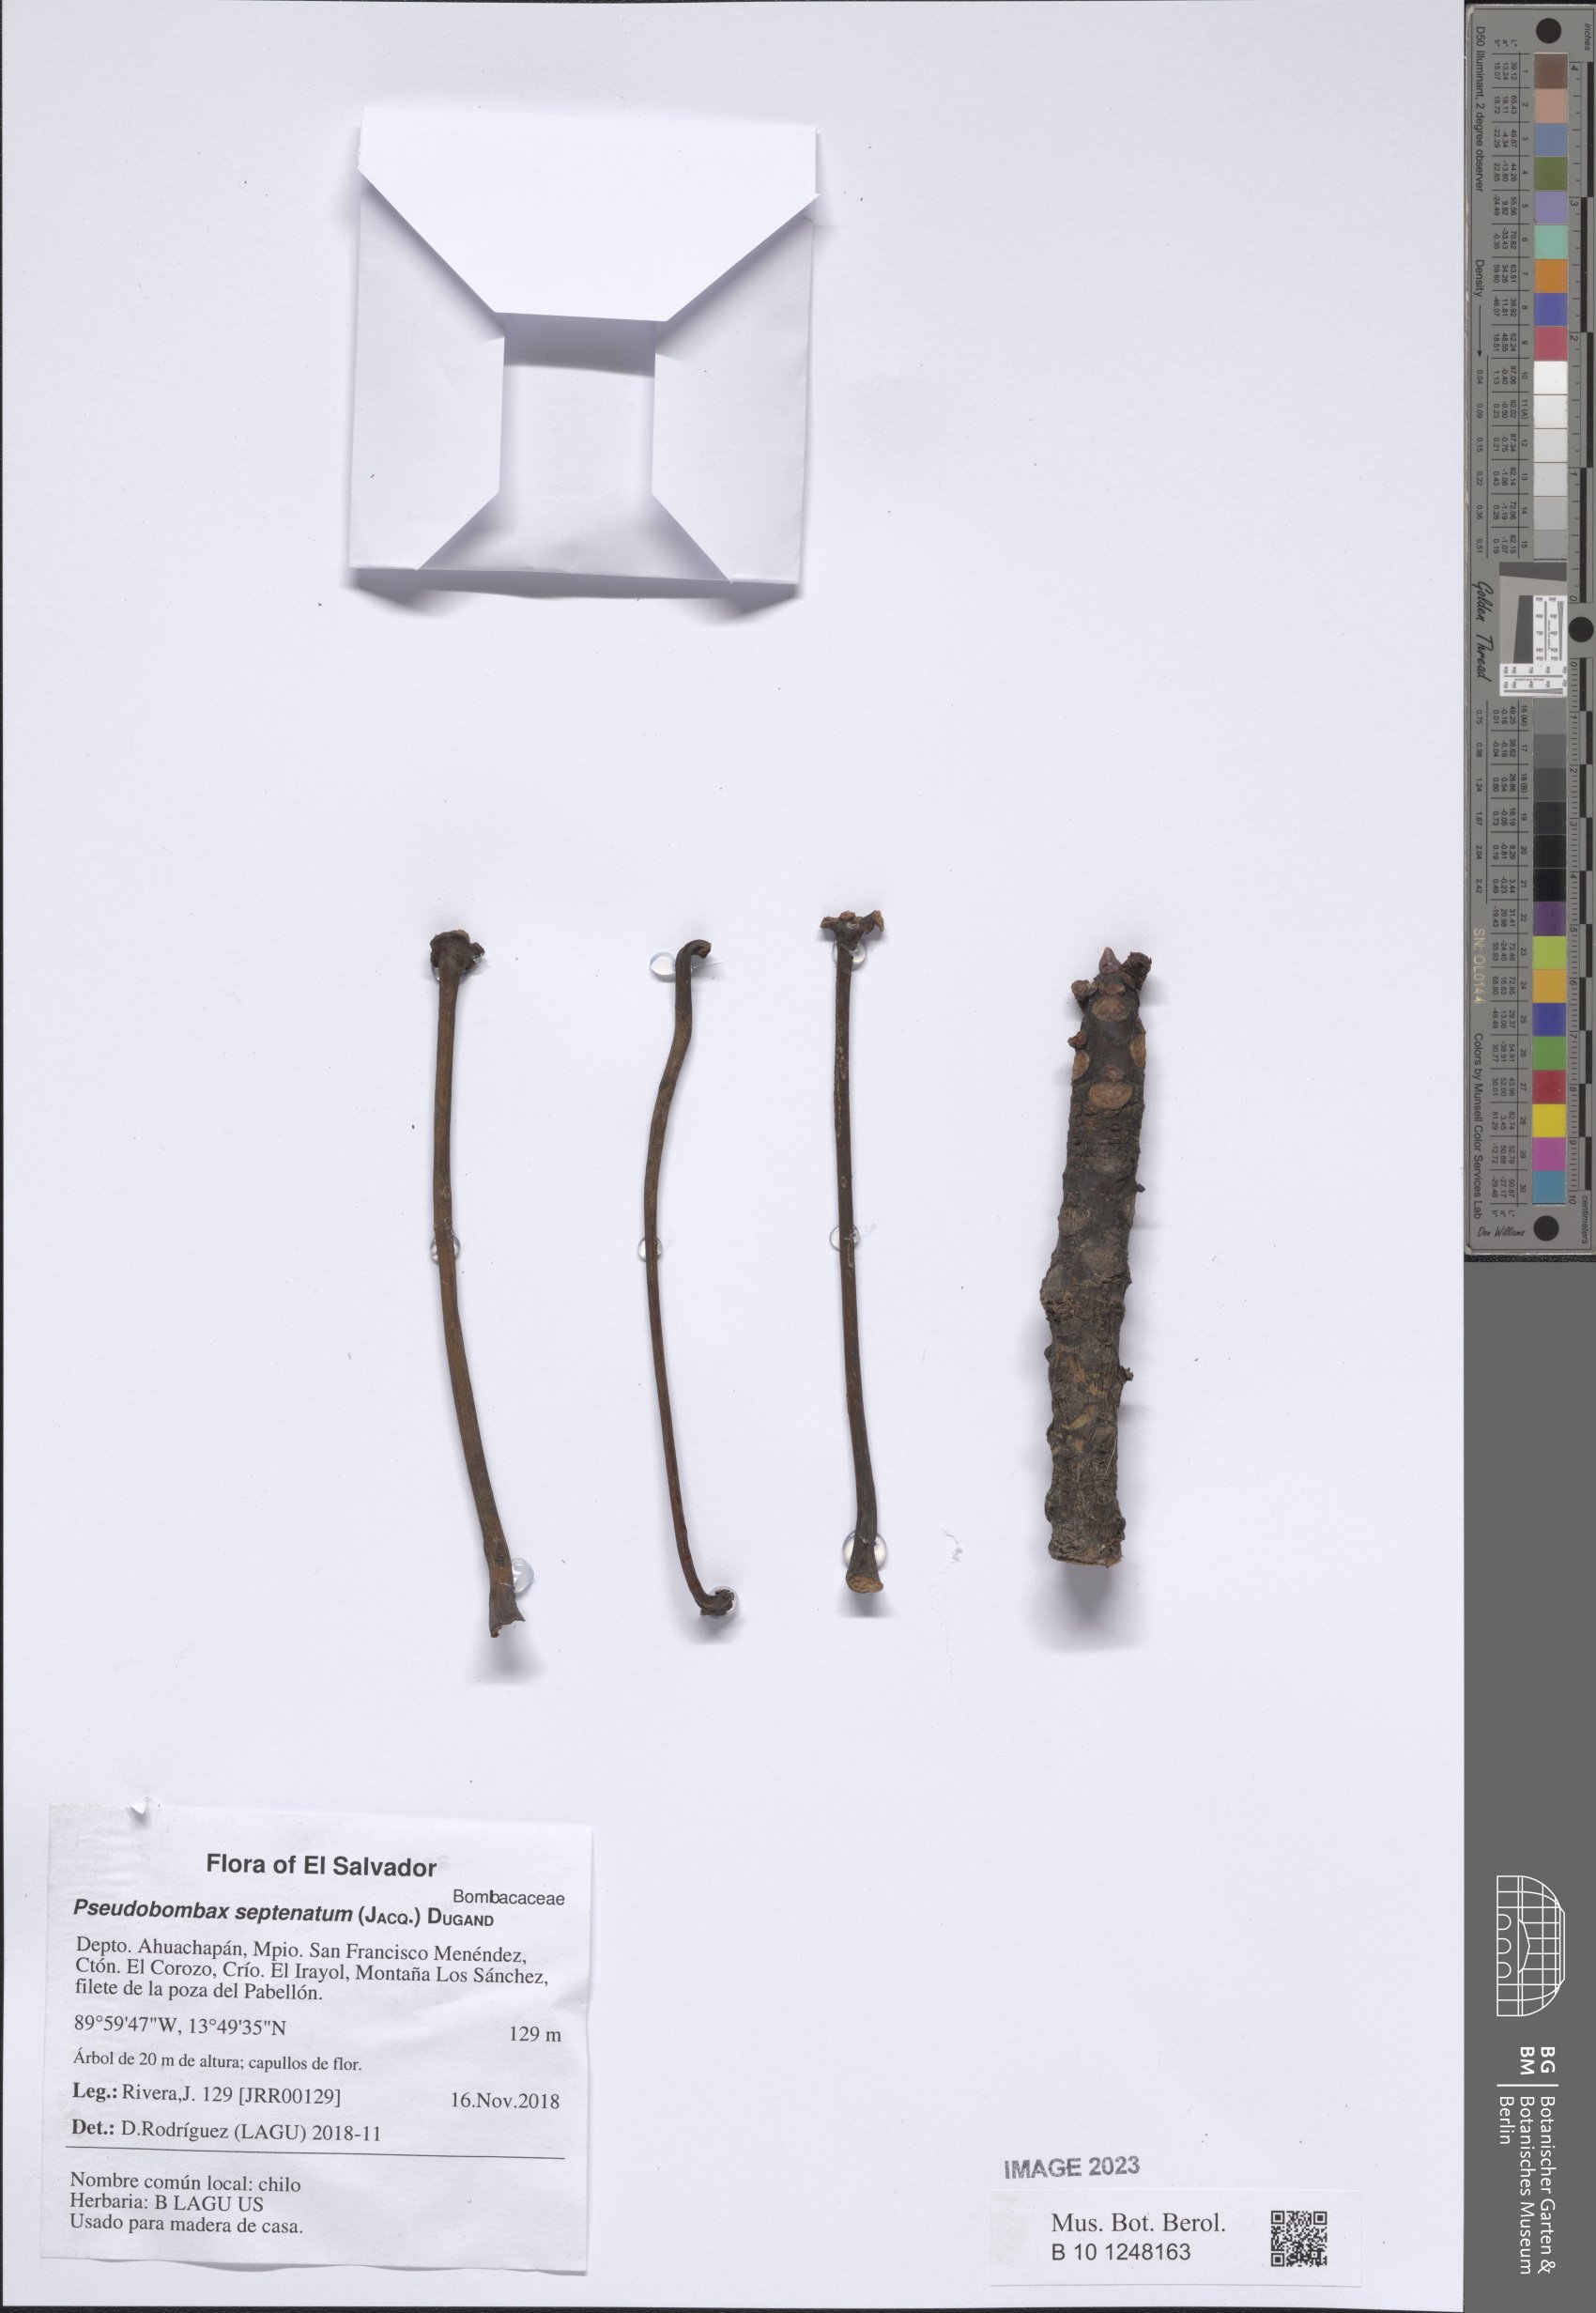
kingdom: Plantae
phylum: Tracheophyta
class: Magnoliopsida
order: Malvales
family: Malvaceae
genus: Pseudobombax
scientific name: Pseudobombax septenatum
